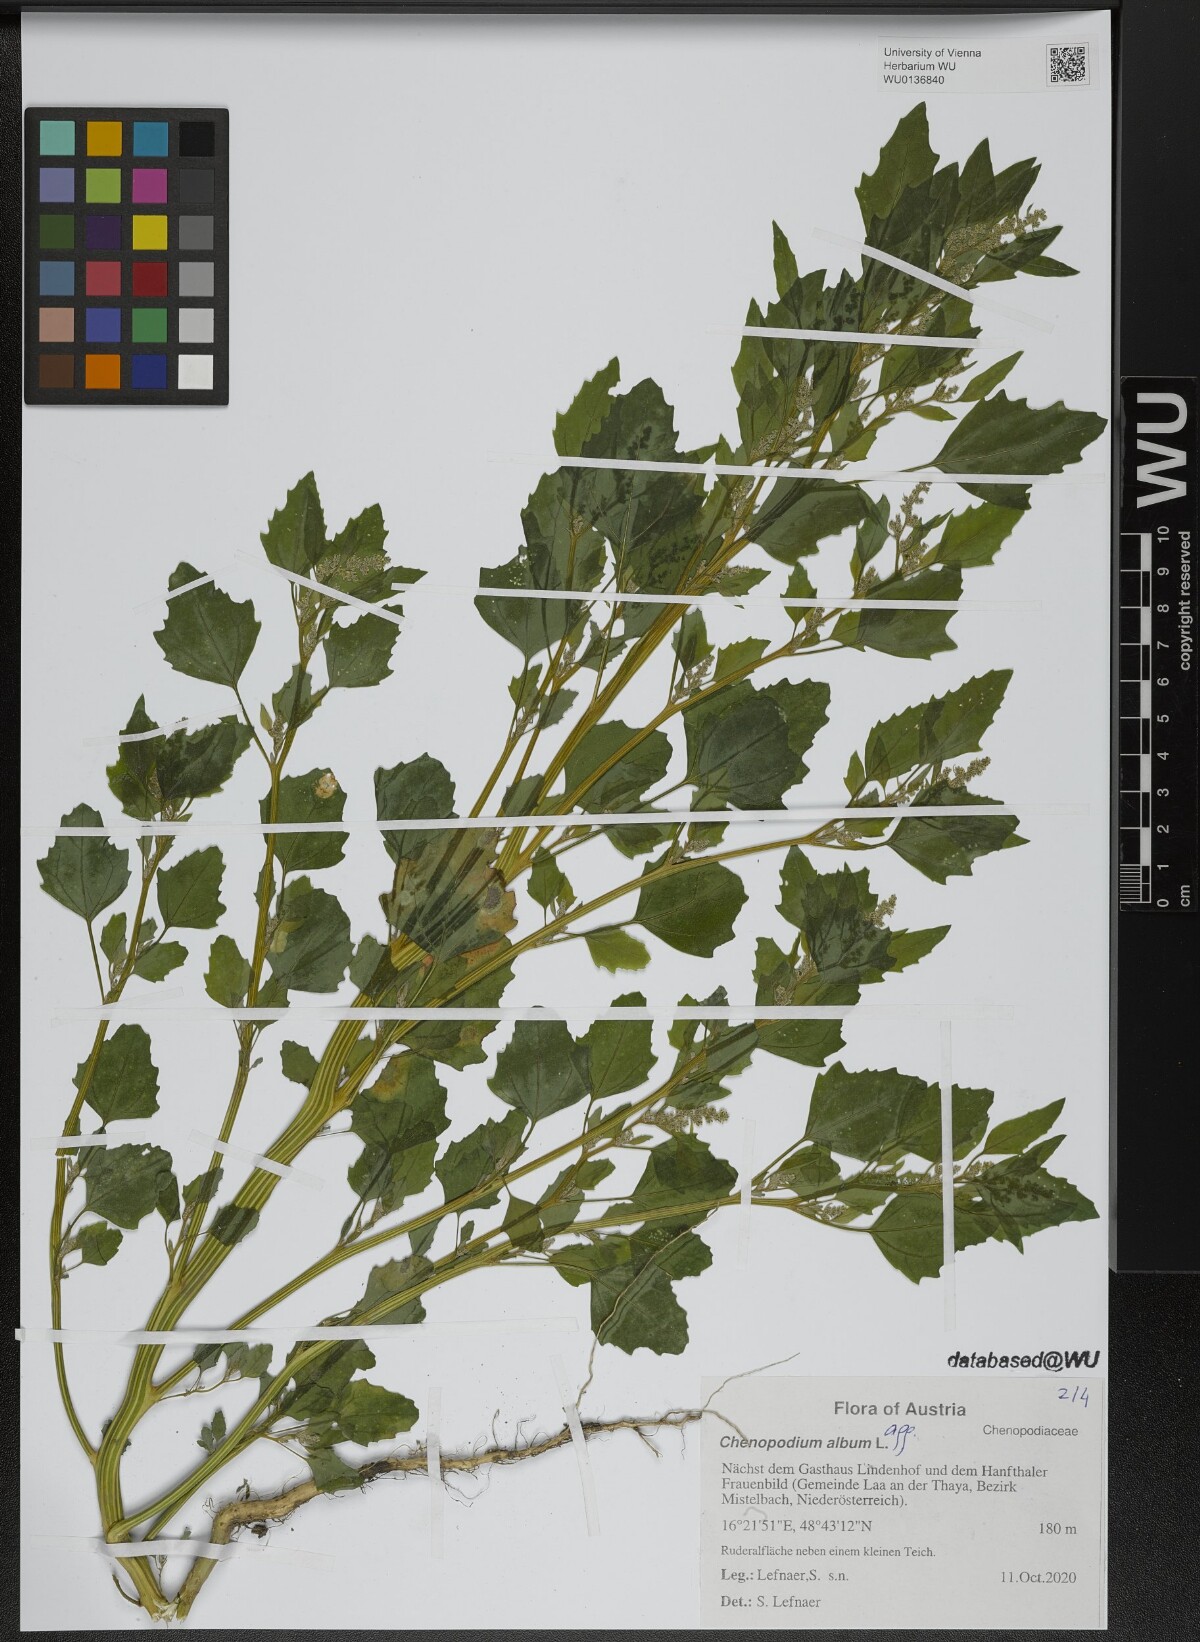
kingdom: Plantae
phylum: Tracheophyta
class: Magnoliopsida
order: Caryophyllales
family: Amaranthaceae
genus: Chenopodium
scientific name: Chenopodium album
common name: Fat-hen
